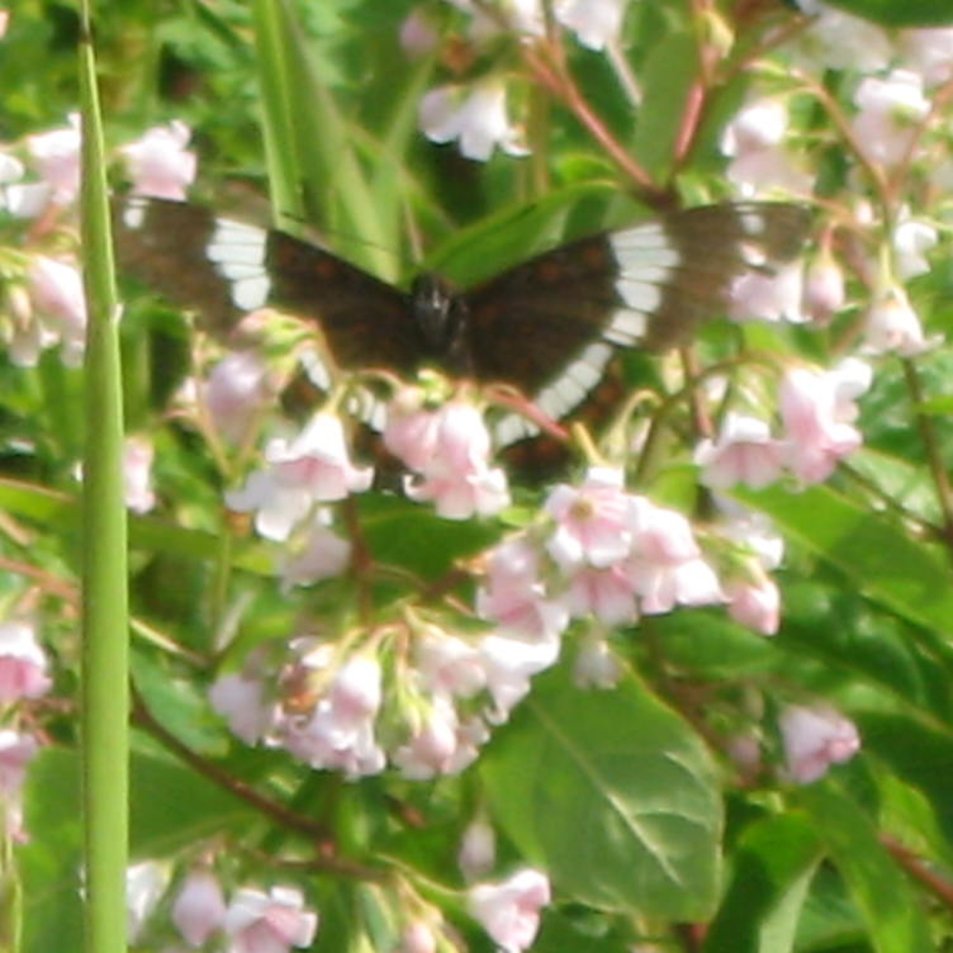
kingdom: Animalia
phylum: Arthropoda
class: Insecta
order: Lepidoptera
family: Nymphalidae
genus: Limenitis
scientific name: Limenitis arthemis
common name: Red-spotted Admiral
